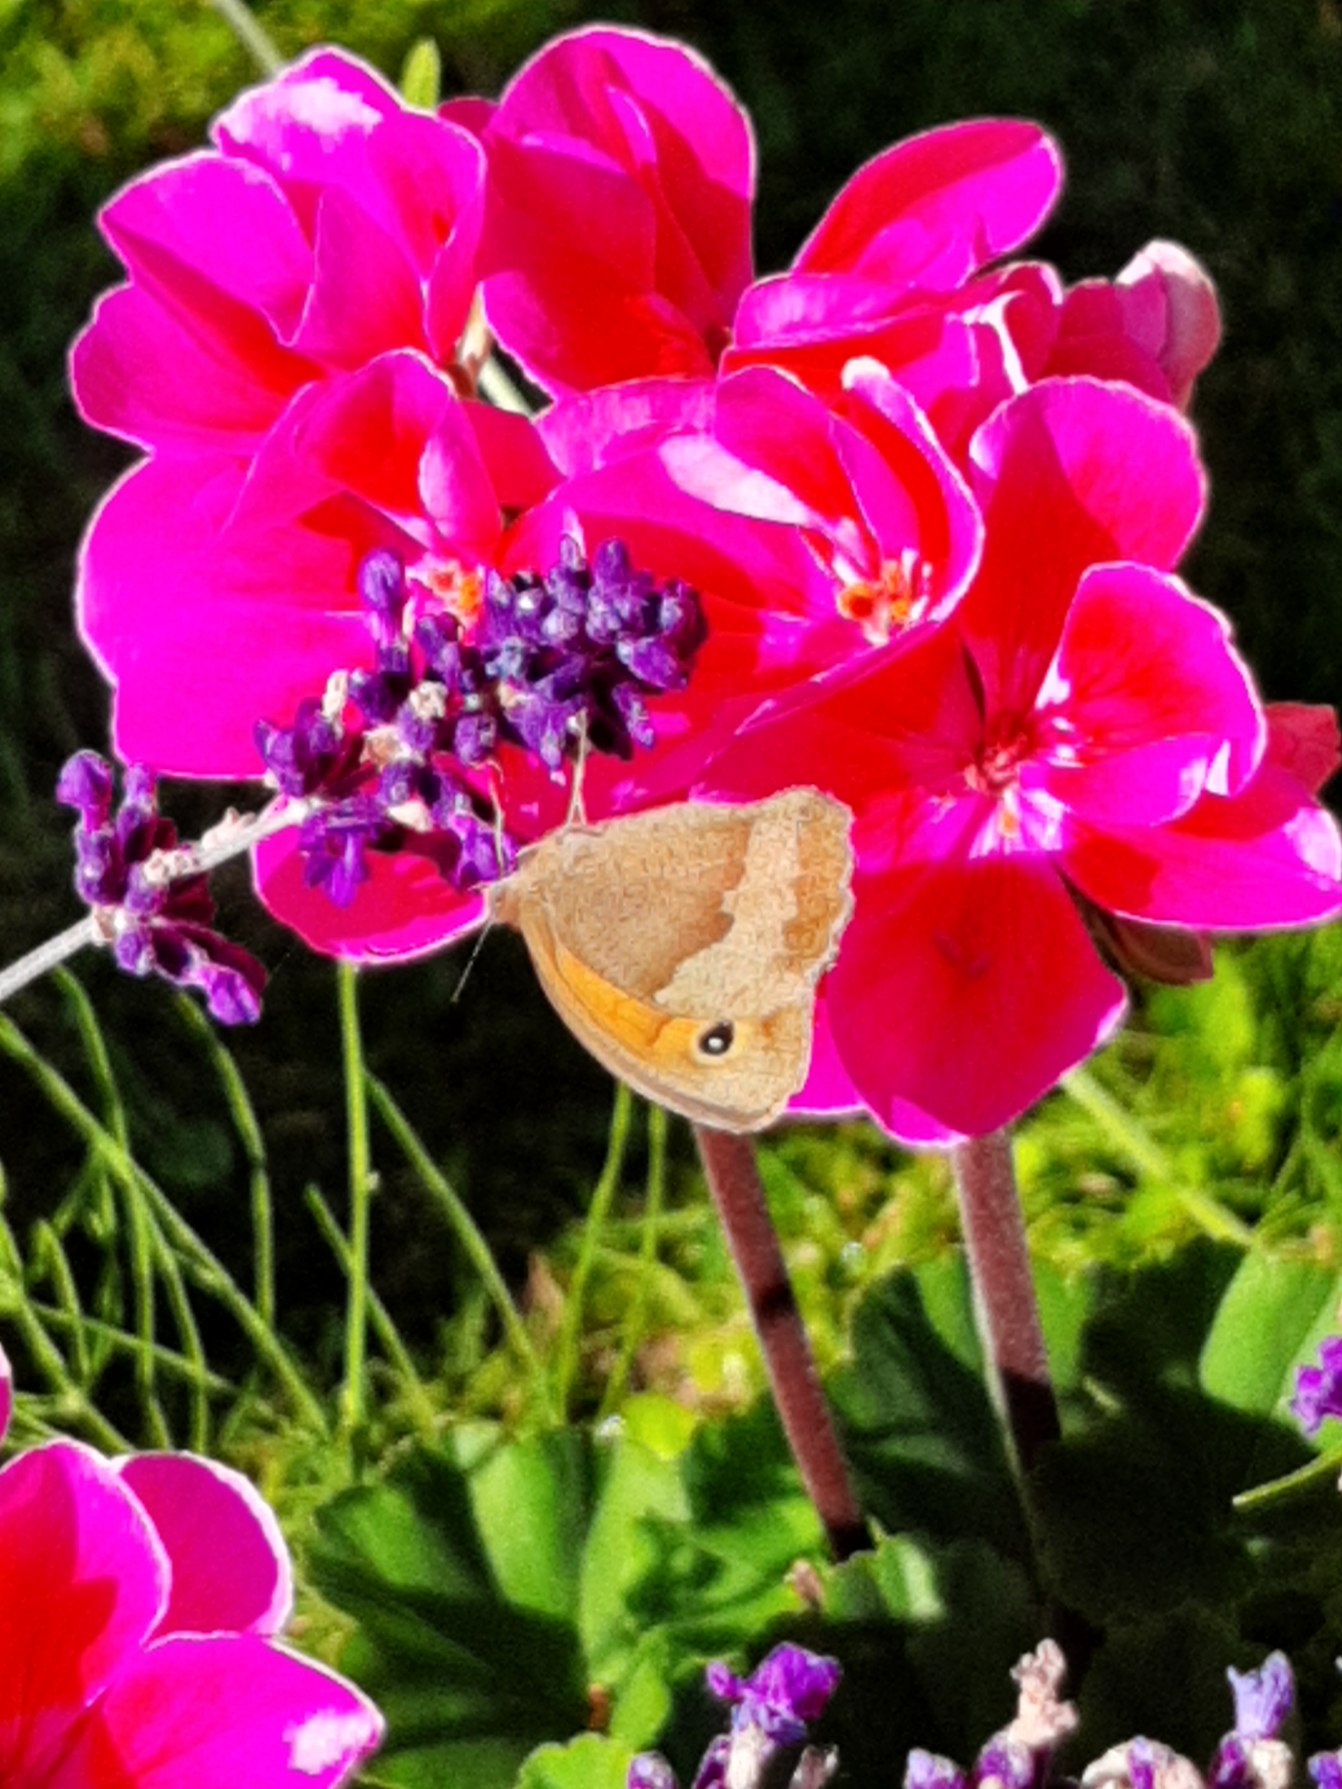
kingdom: Animalia
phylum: Arthropoda
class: Insecta
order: Lepidoptera
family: Nymphalidae
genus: Maniola
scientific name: Maniola jurtina
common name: Græsrandøje
